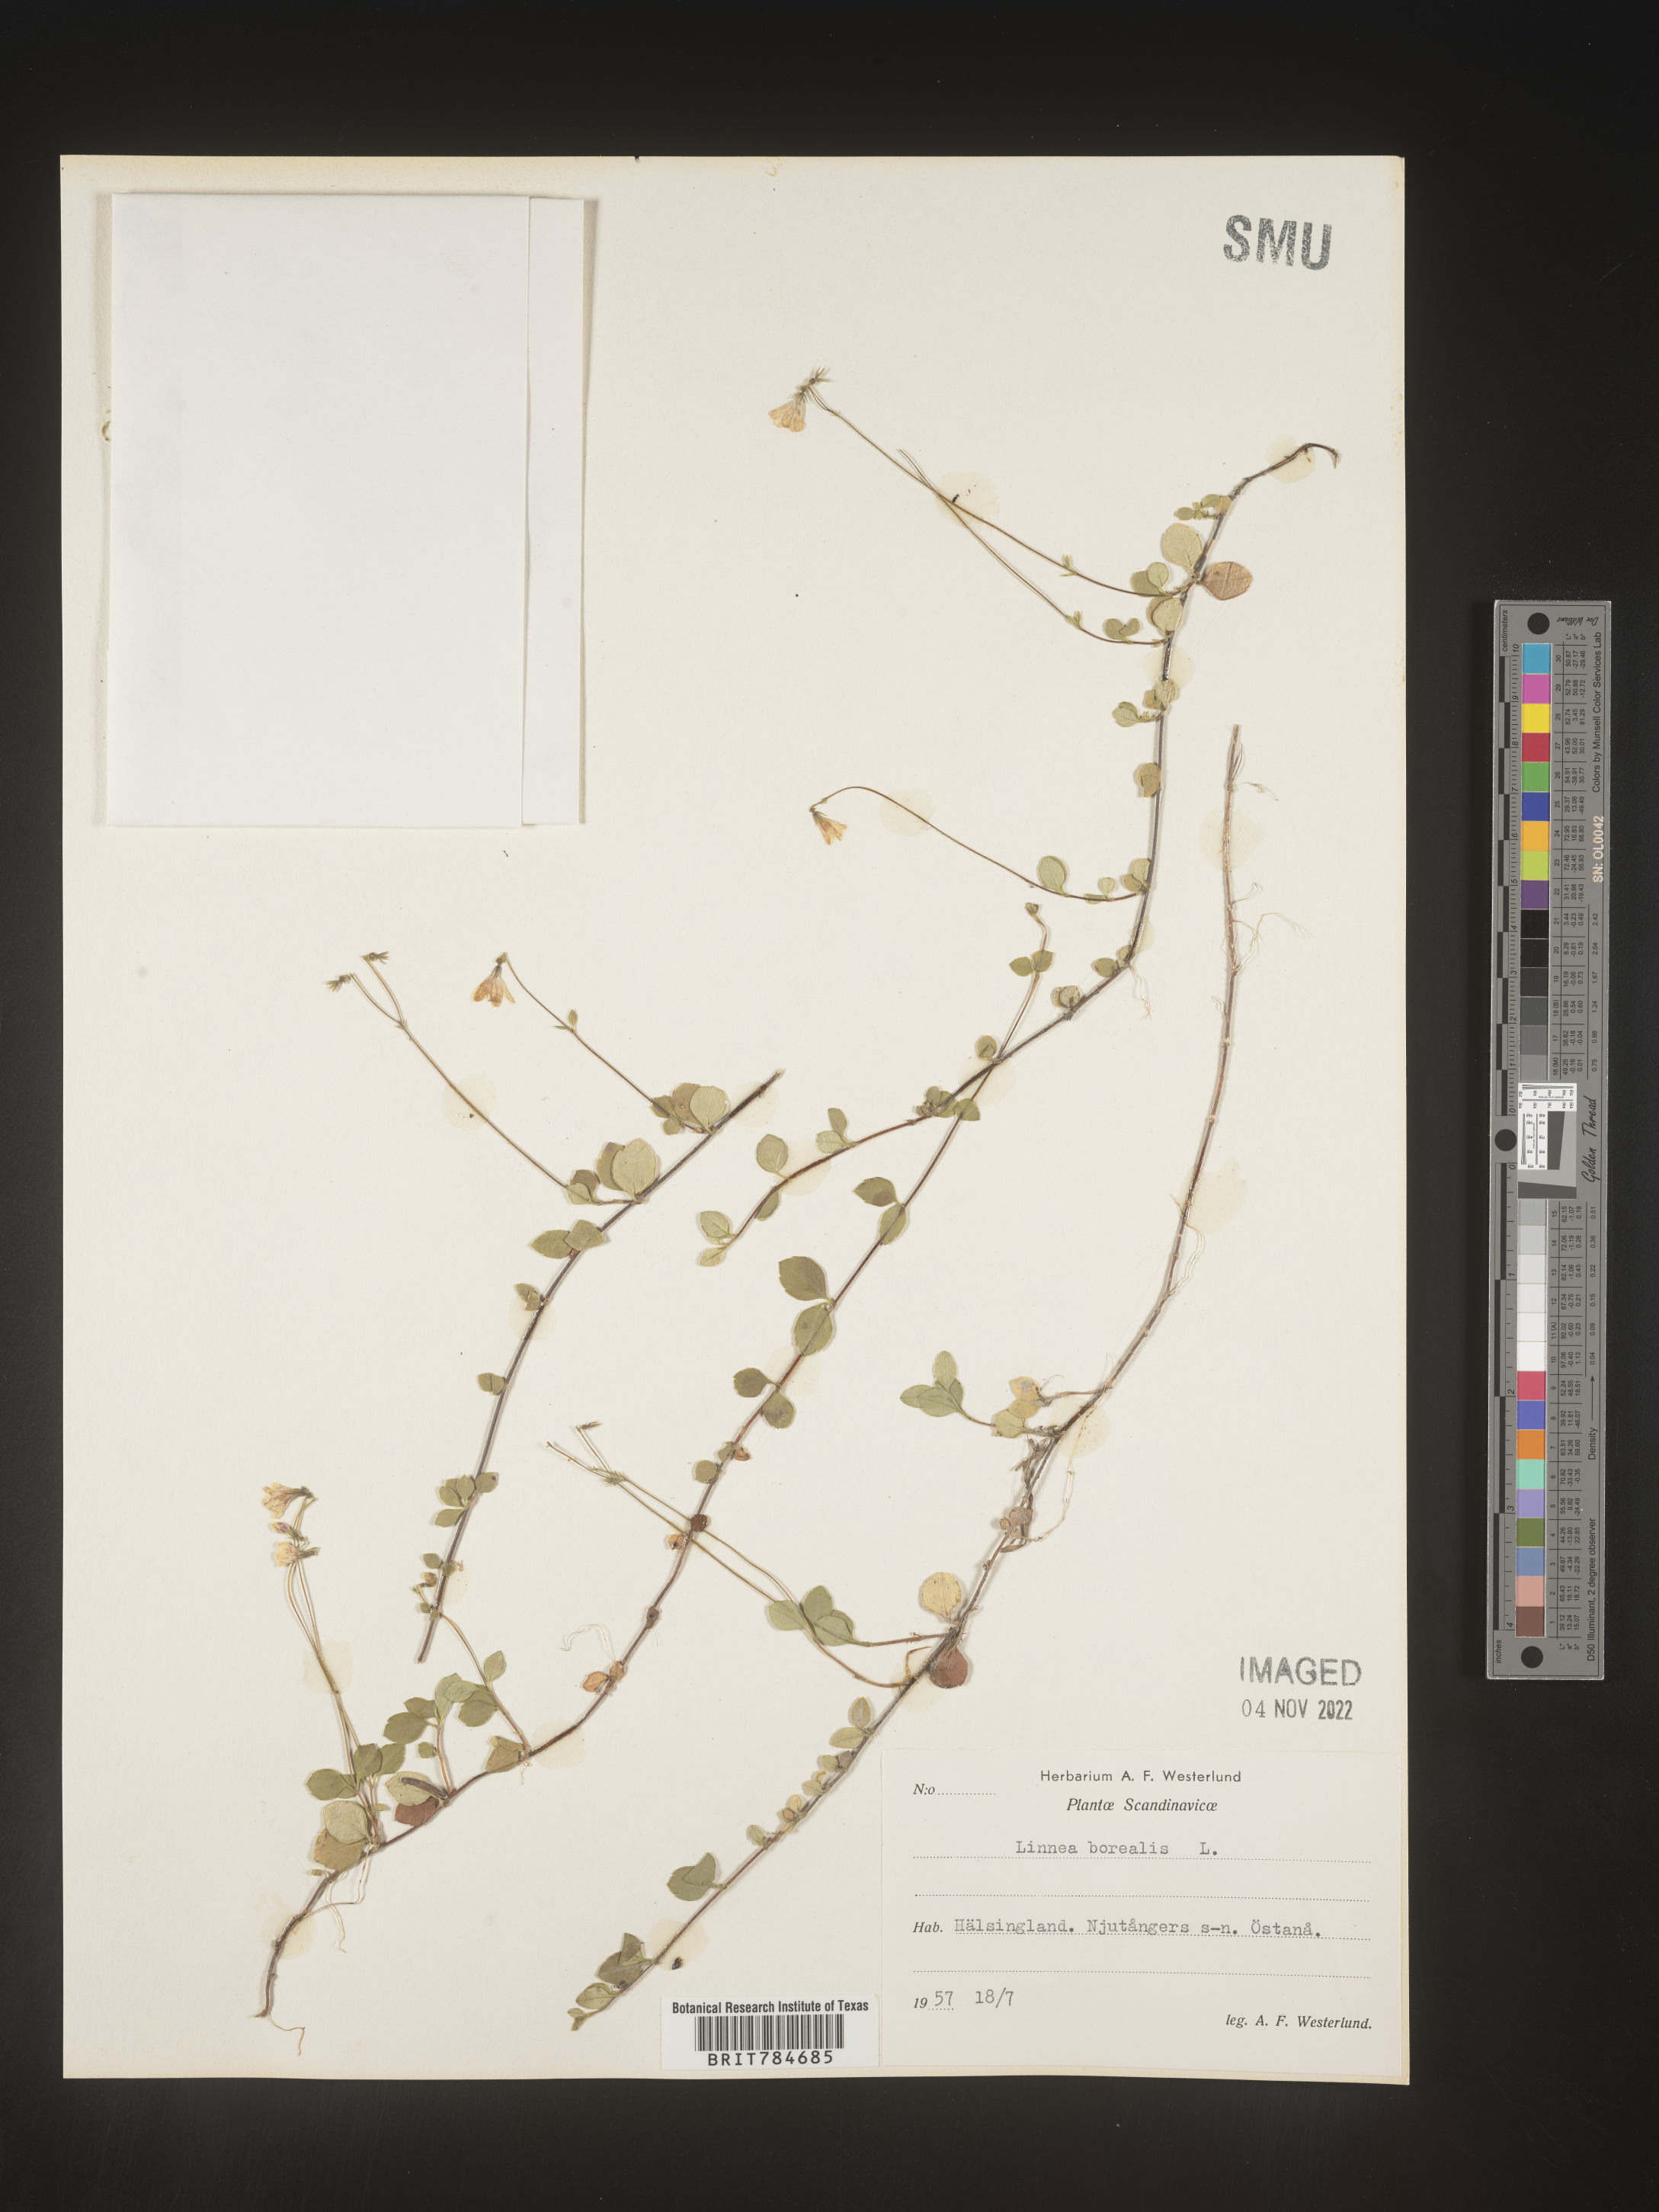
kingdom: Plantae
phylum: Tracheophyta
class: Magnoliopsida
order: Dipsacales
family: Caprifoliaceae
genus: Linnaea
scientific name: Linnaea
